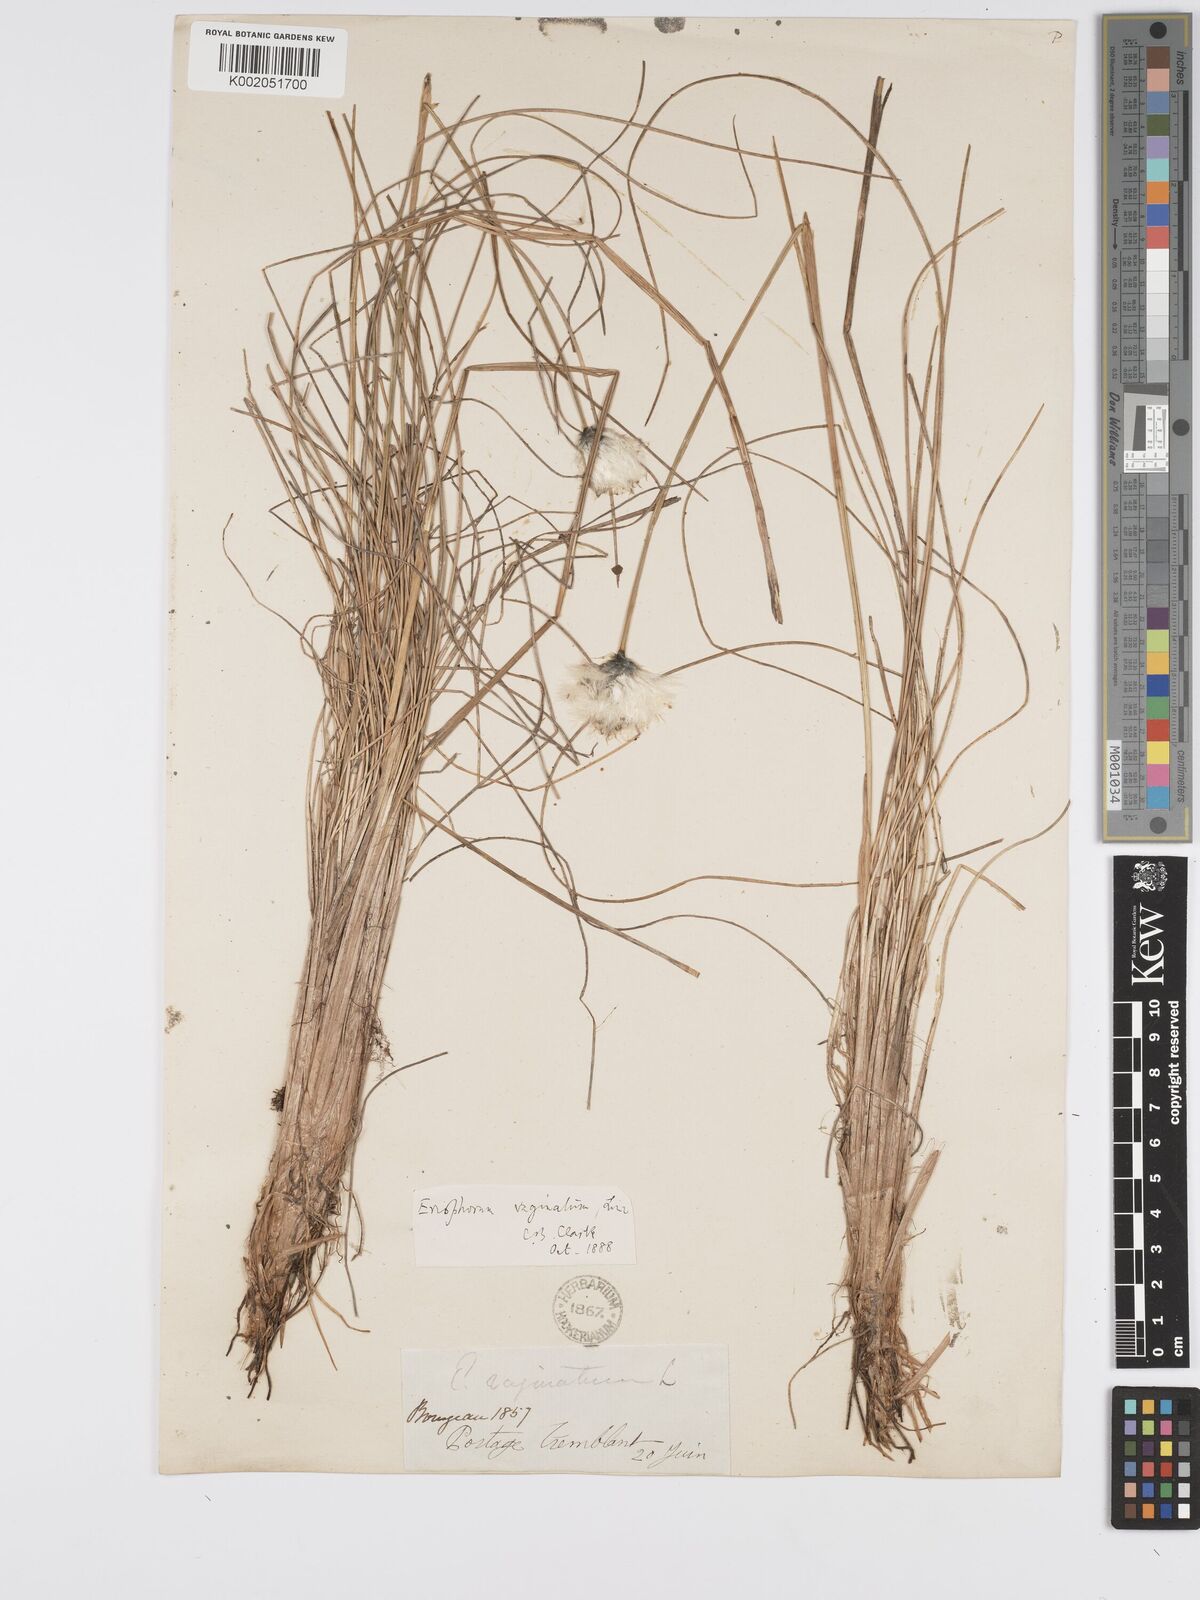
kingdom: Plantae
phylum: Tracheophyta
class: Liliopsida
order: Poales
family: Cyperaceae
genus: Eriophorum
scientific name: Eriophorum vaginatum
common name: Hare's-tail cottongrass
